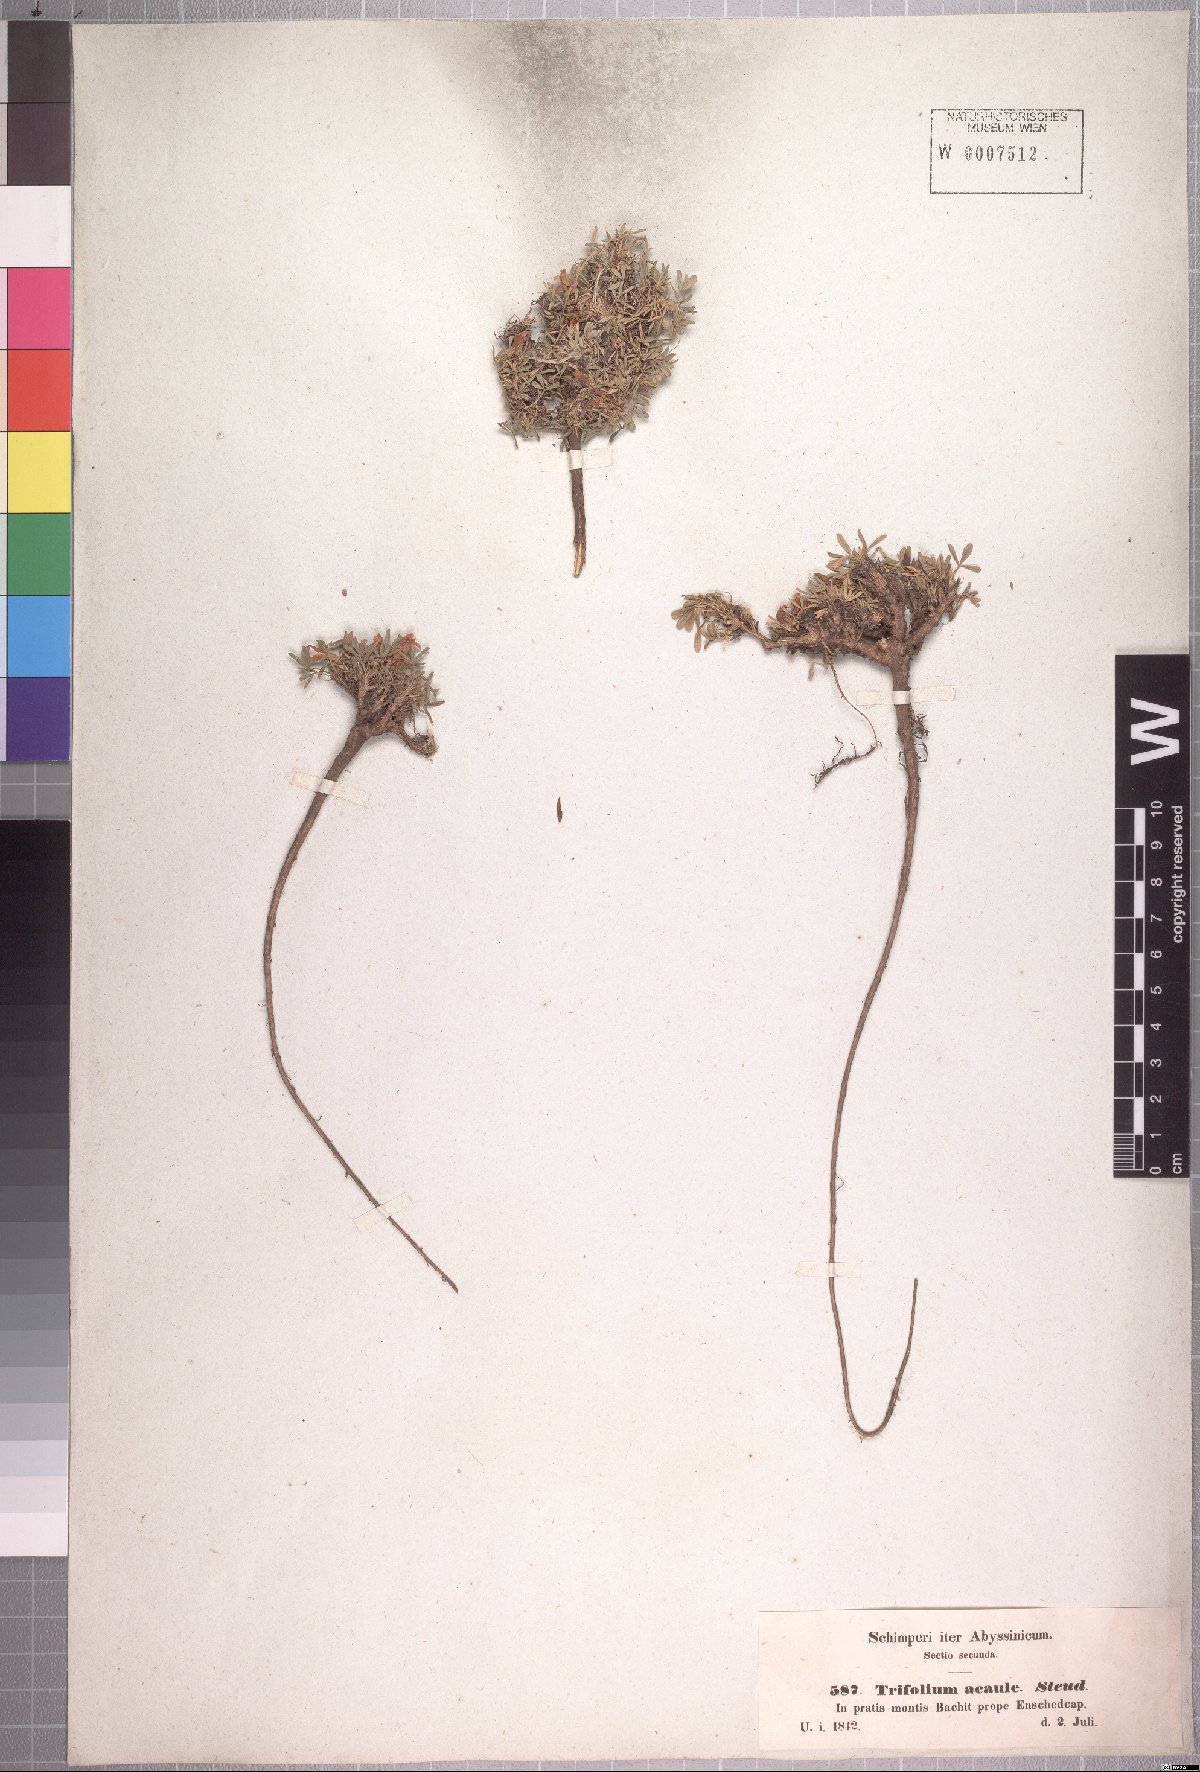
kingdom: Plantae
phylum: Tracheophyta
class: Magnoliopsida
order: Fabales
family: Fabaceae
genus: Trifolium
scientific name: Trifolium acaule
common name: Stemless clover
